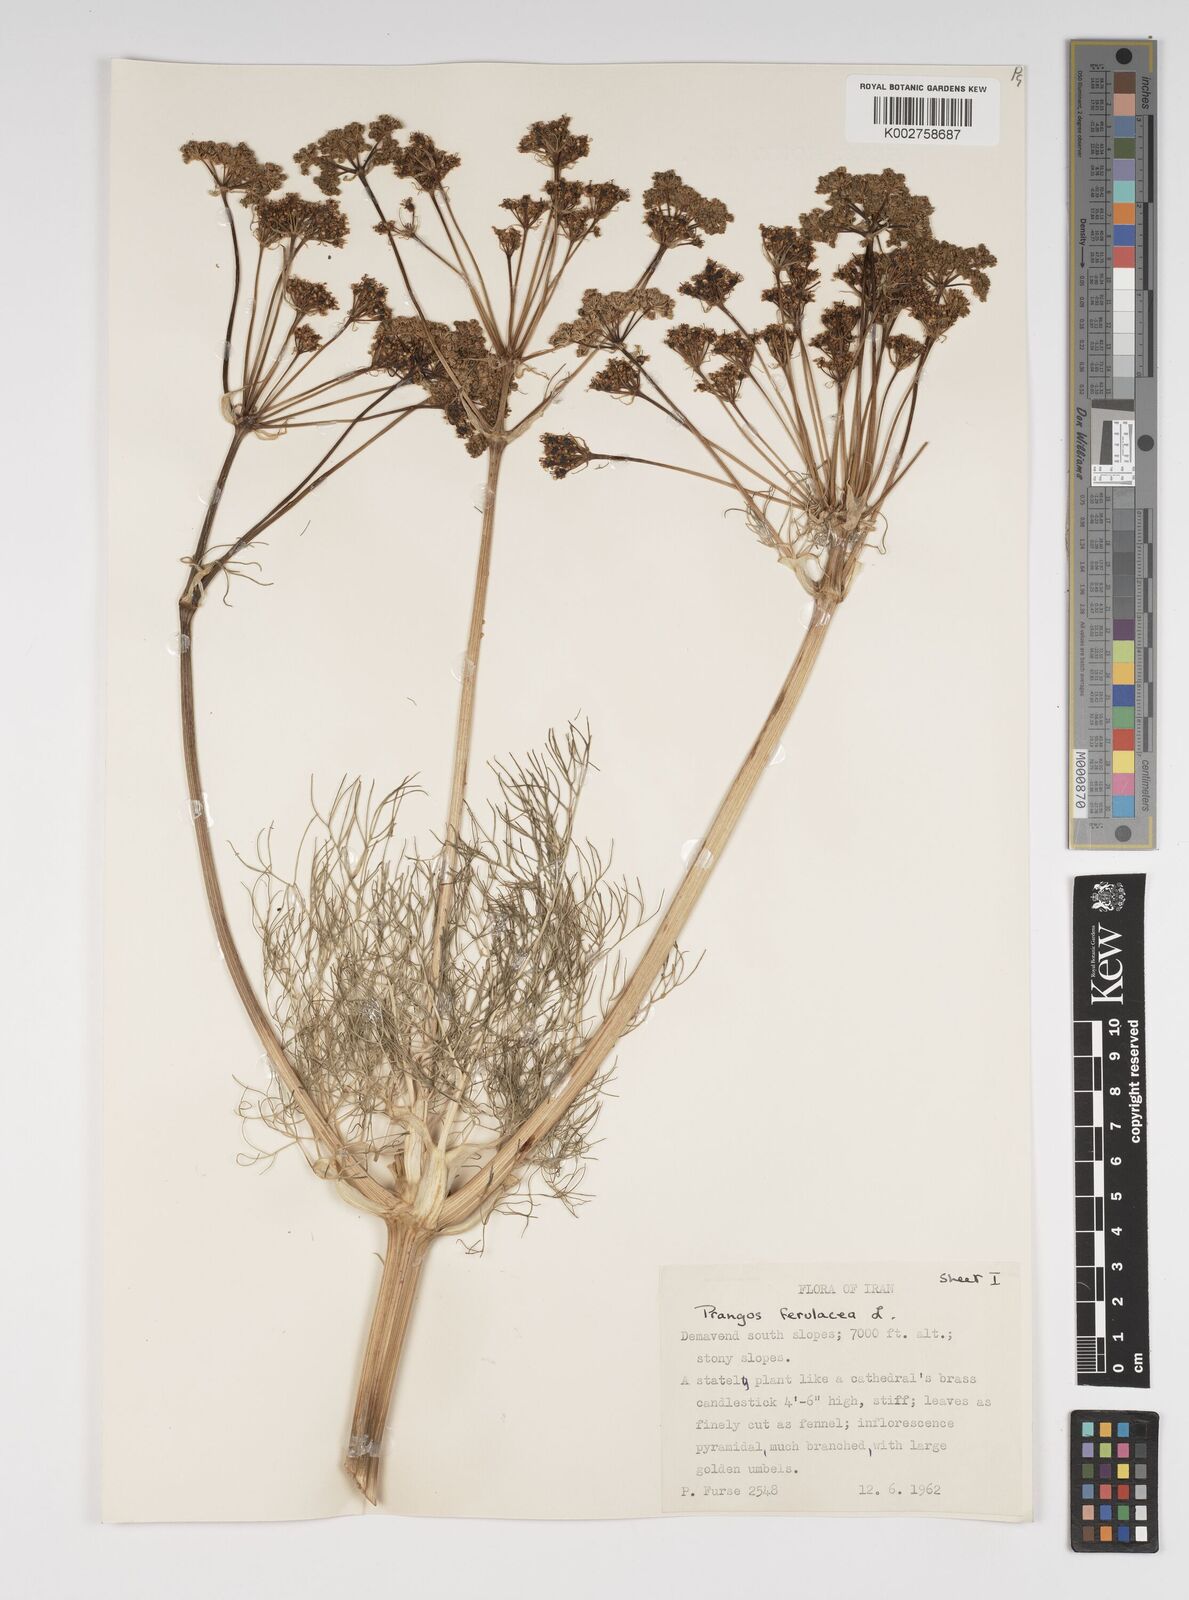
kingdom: Plantae
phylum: Tracheophyta
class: Magnoliopsida
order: Apiales
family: Apiaceae
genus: Prangos
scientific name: Prangos ferulacea
